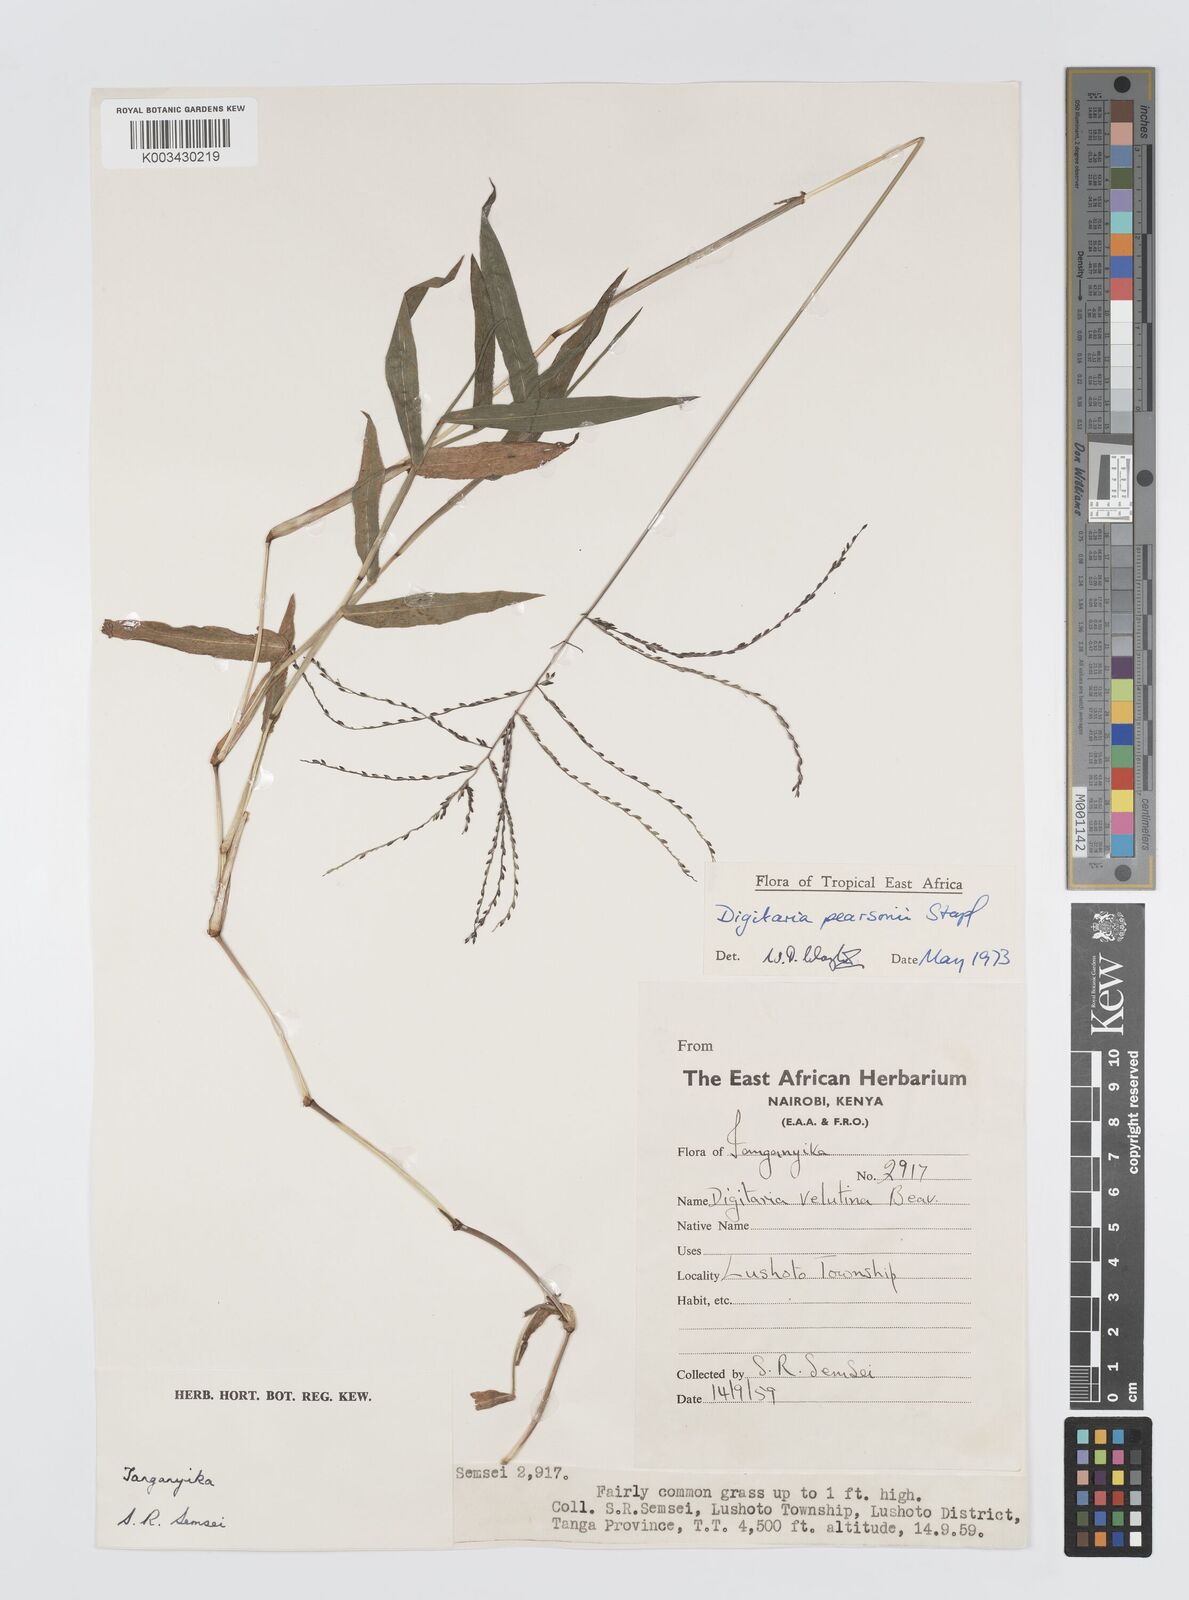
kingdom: Plantae
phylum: Tracheophyta
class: Liliopsida
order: Poales
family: Poaceae
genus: Digitaria
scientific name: Digitaria pearsonii
